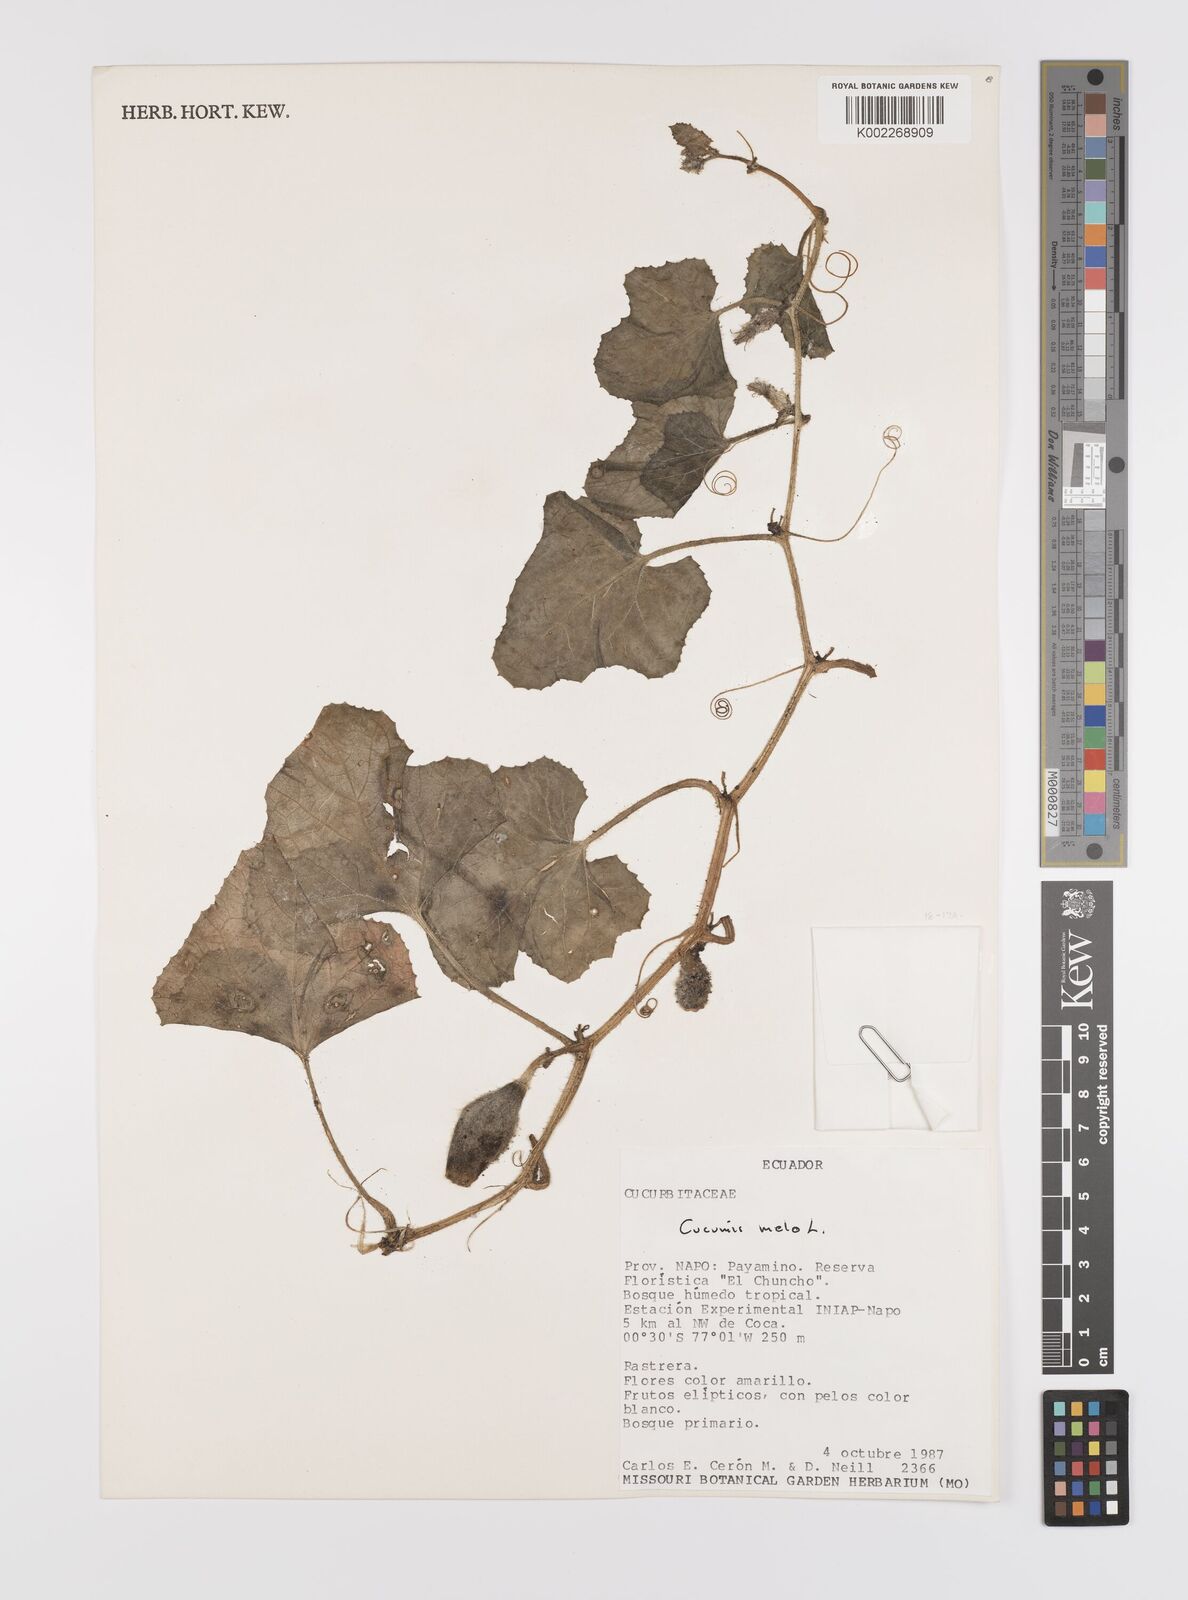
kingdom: Plantae
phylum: Tracheophyta
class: Magnoliopsida
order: Cucurbitales
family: Cucurbitaceae
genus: Cucumis
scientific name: Cucumis melo
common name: Melon
